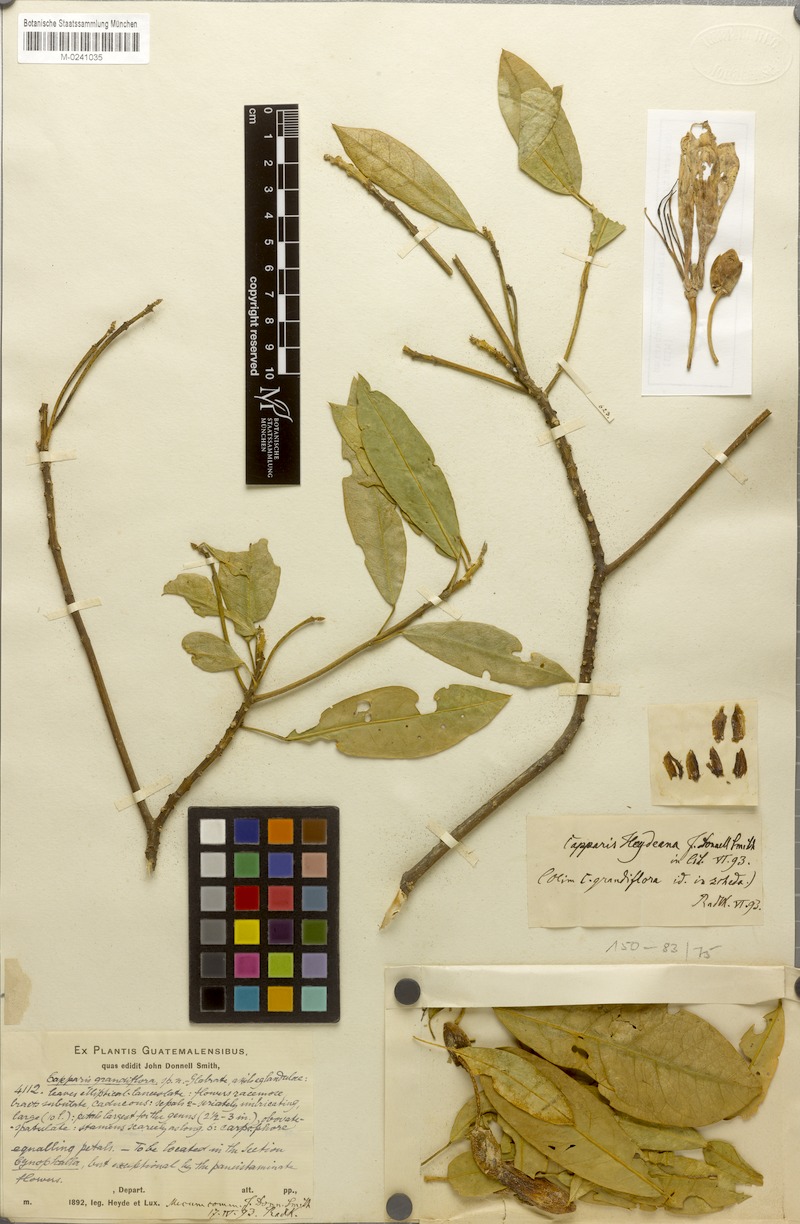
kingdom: Plantae
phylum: Tracheophyta
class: Magnoliopsida
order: Brassicales
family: Capparaceae
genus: Caphexandra
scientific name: Caphexandra heydeana
